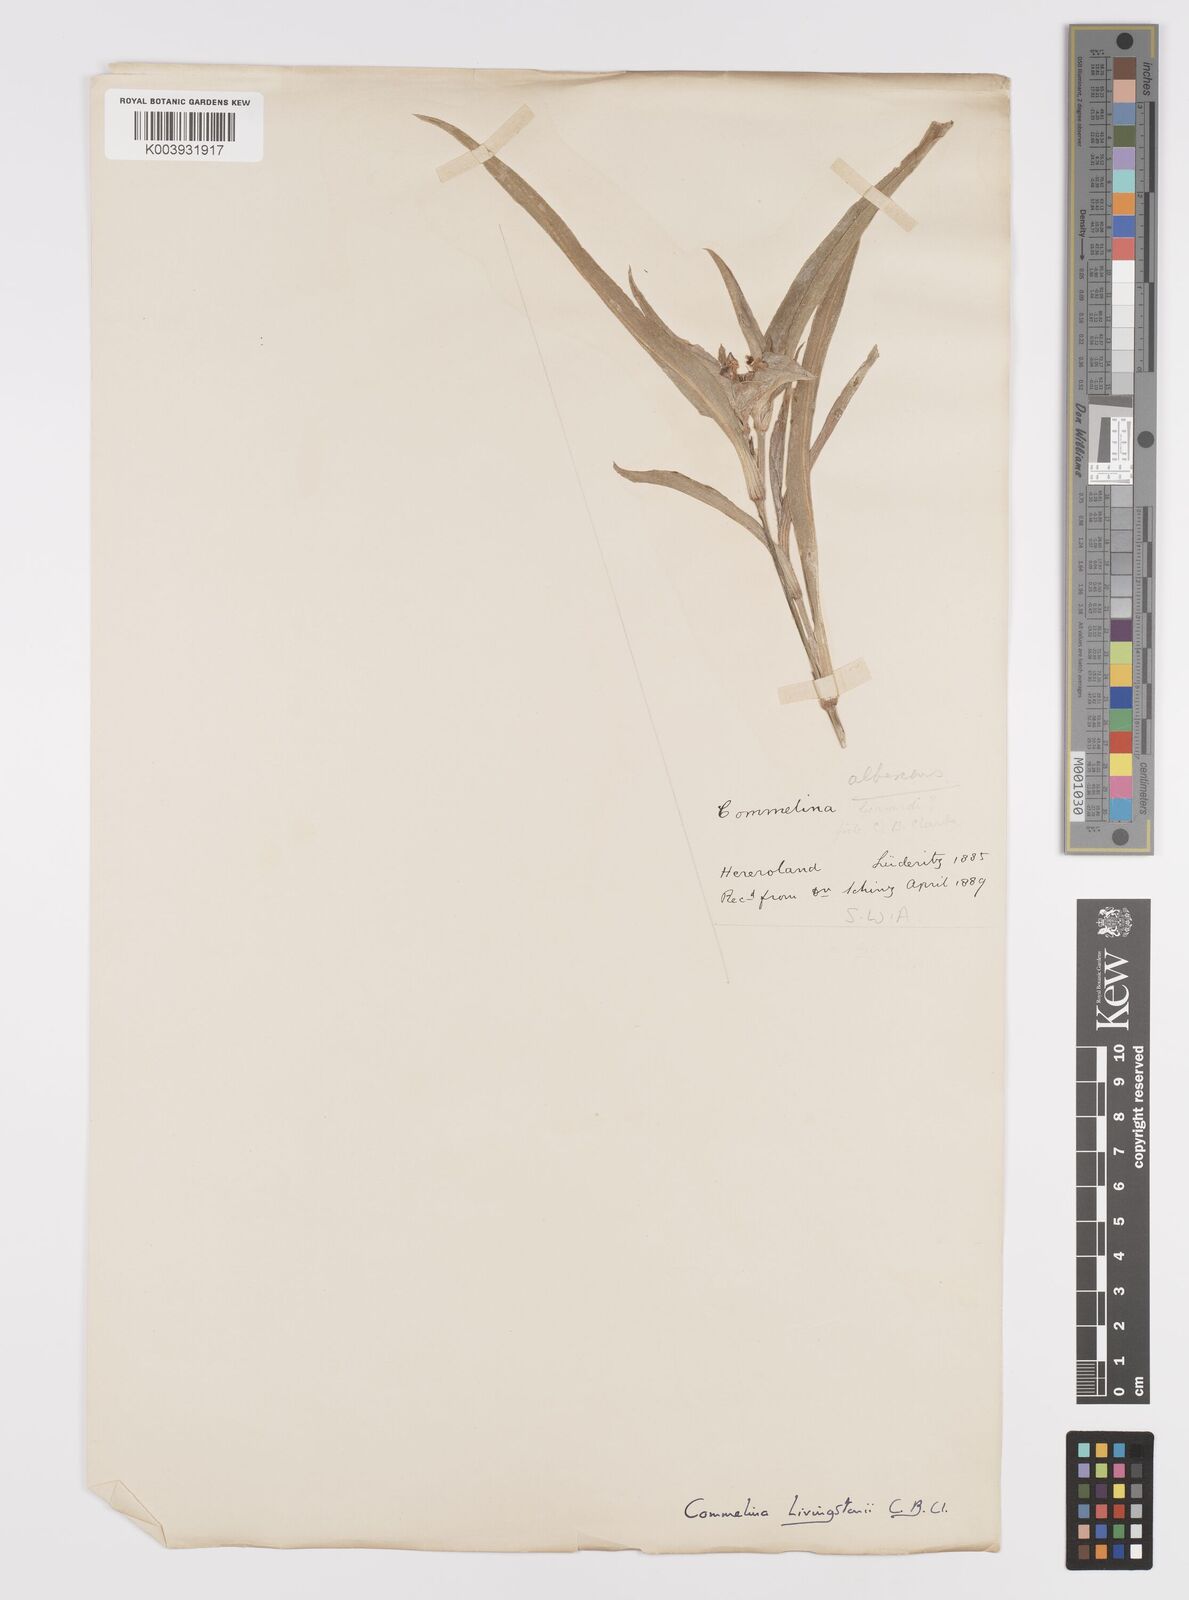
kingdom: Plantae
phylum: Tracheophyta
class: Liliopsida
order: Commelinales
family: Commelinaceae
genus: Commelina
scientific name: Commelina erecta
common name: Blousel blommetjie
